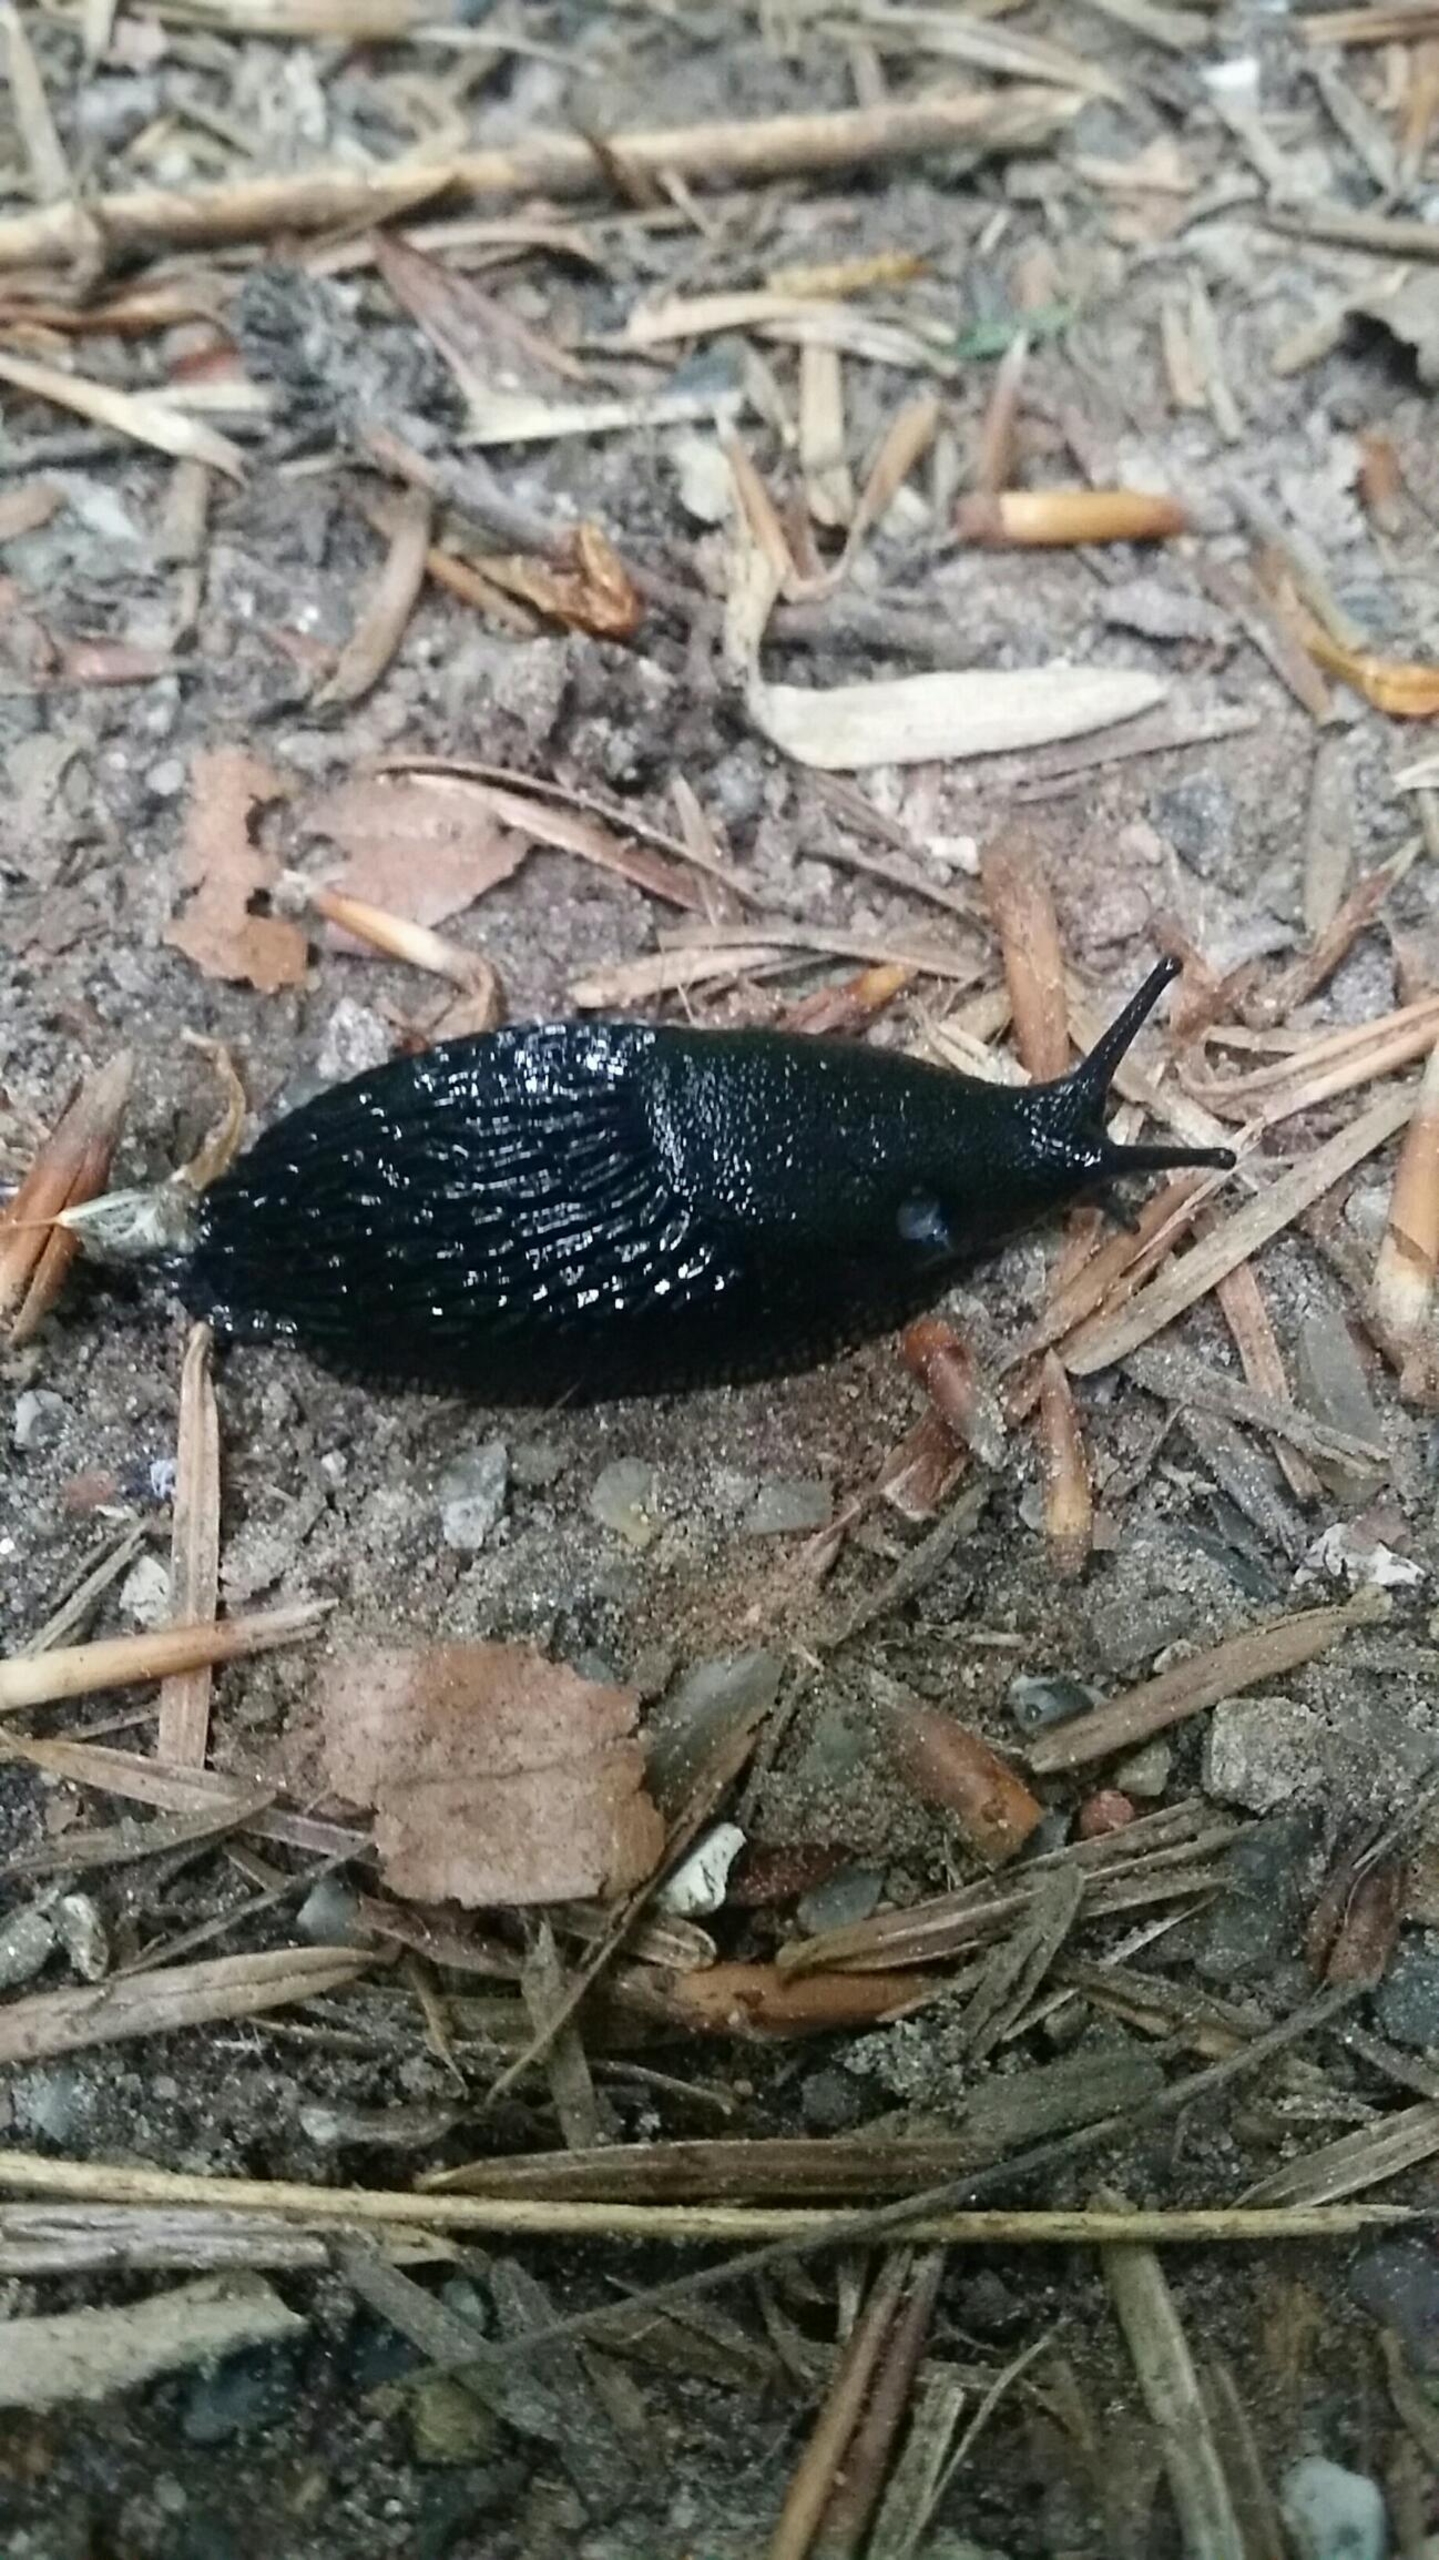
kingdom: Animalia
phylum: Mollusca
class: Gastropoda
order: Stylommatophora
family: Arionidae
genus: Arion
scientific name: Arion ater
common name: Sort skovsnegl
